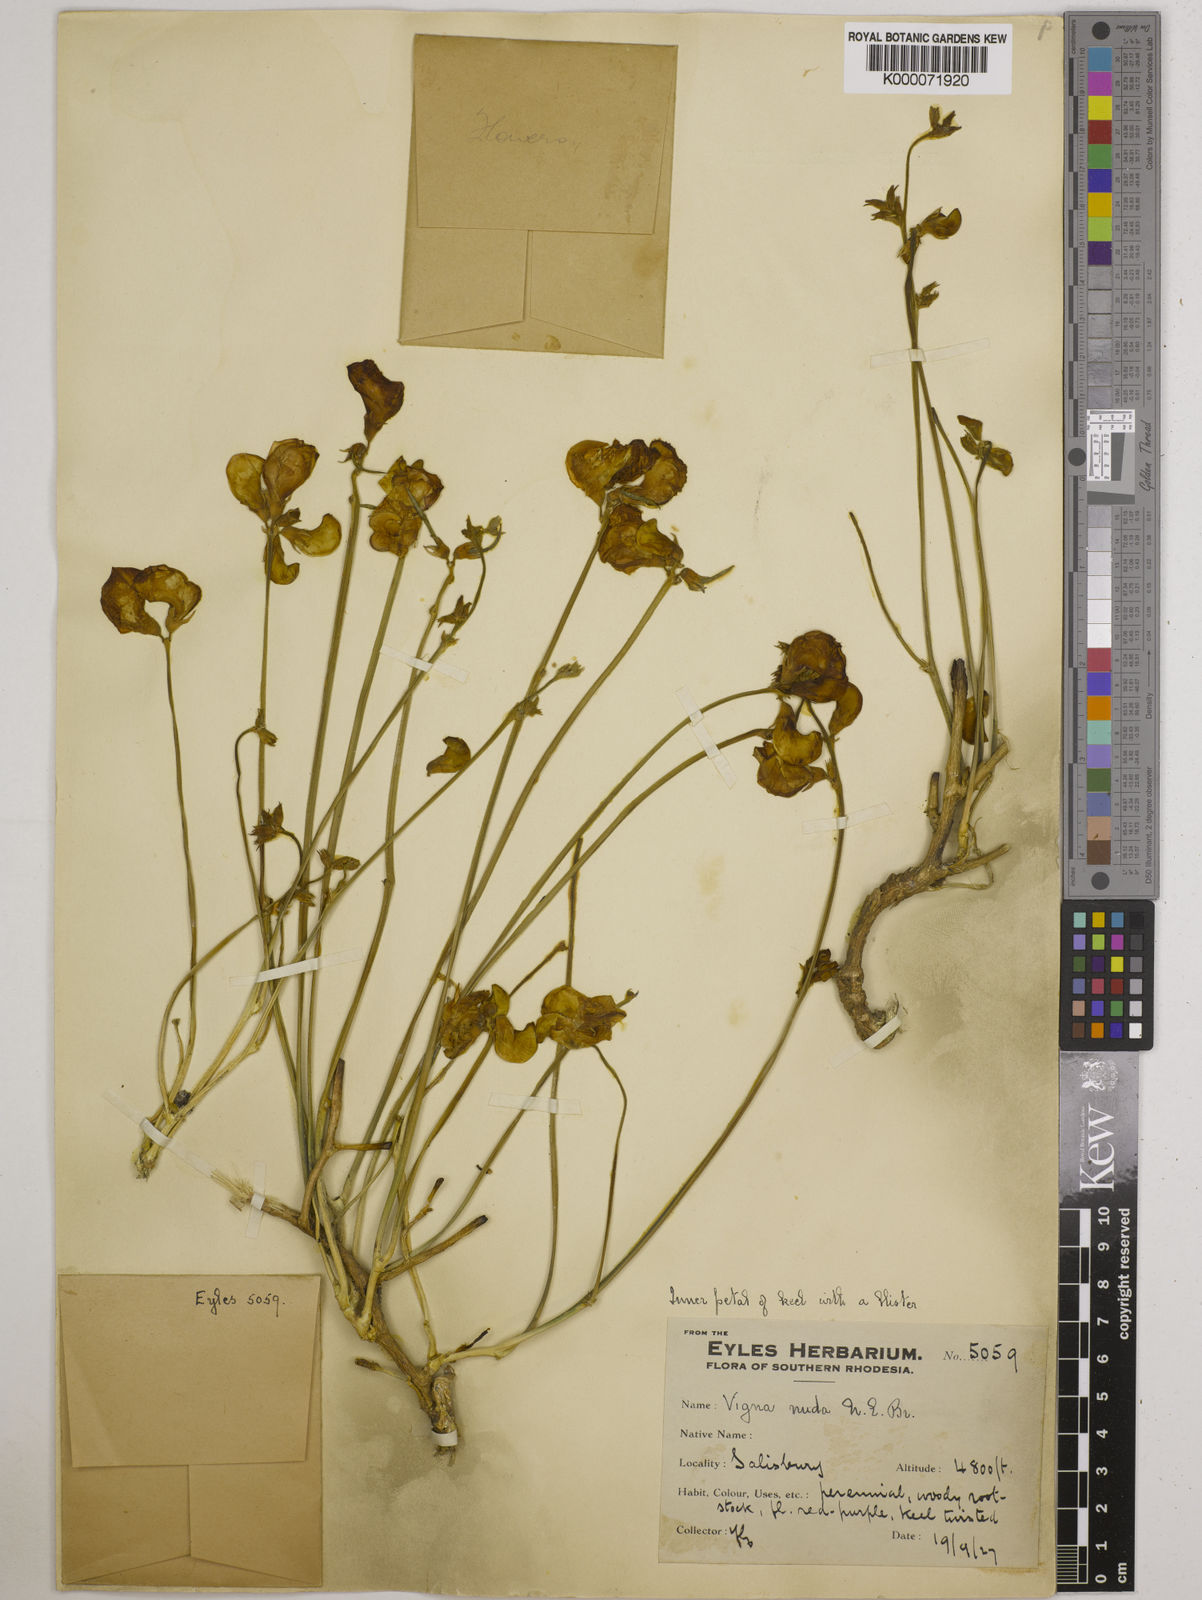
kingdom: Plantae
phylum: Tracheophyta
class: Magnoliopsida
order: Fabales
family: Fabaceae
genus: Vigna
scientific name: Vigna antunesii
